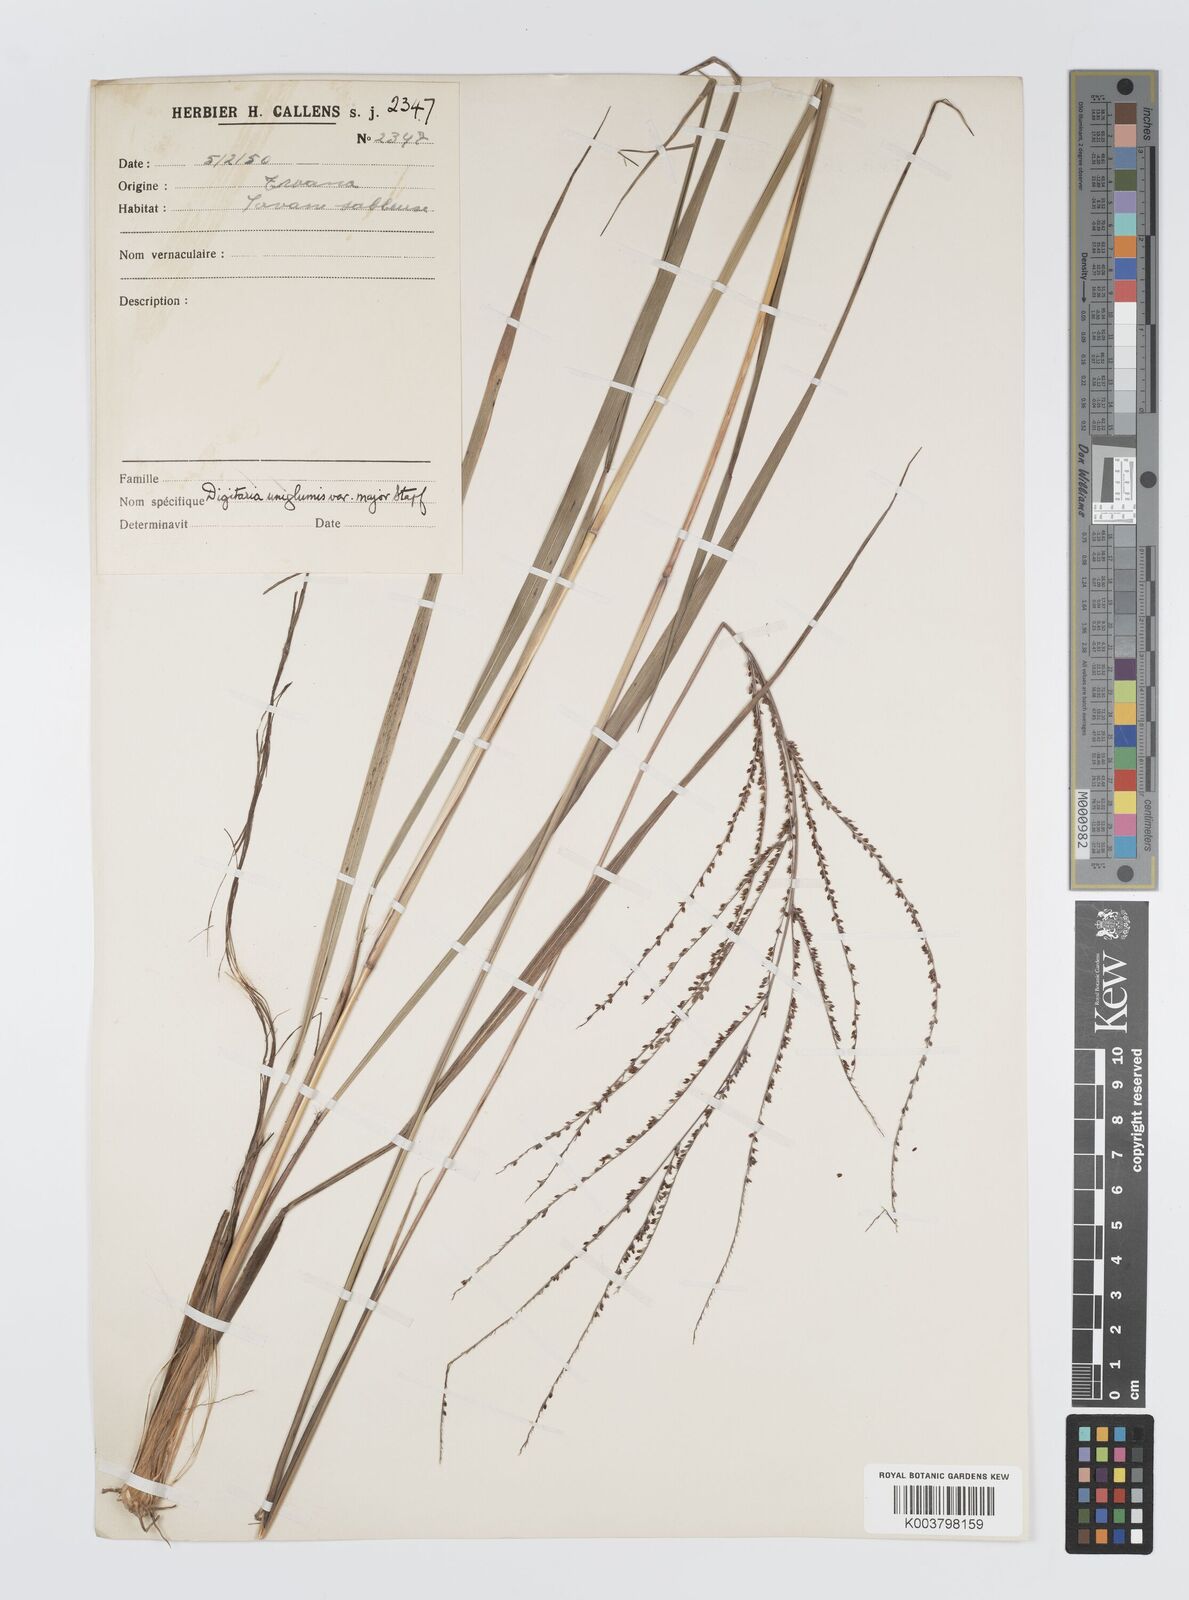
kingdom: Plantae
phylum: Tracheophyta
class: Liliopsida
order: Poales
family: Poaceae
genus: Digitaria
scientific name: Digitaria diagonalis
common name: Brown-seed finger grass
